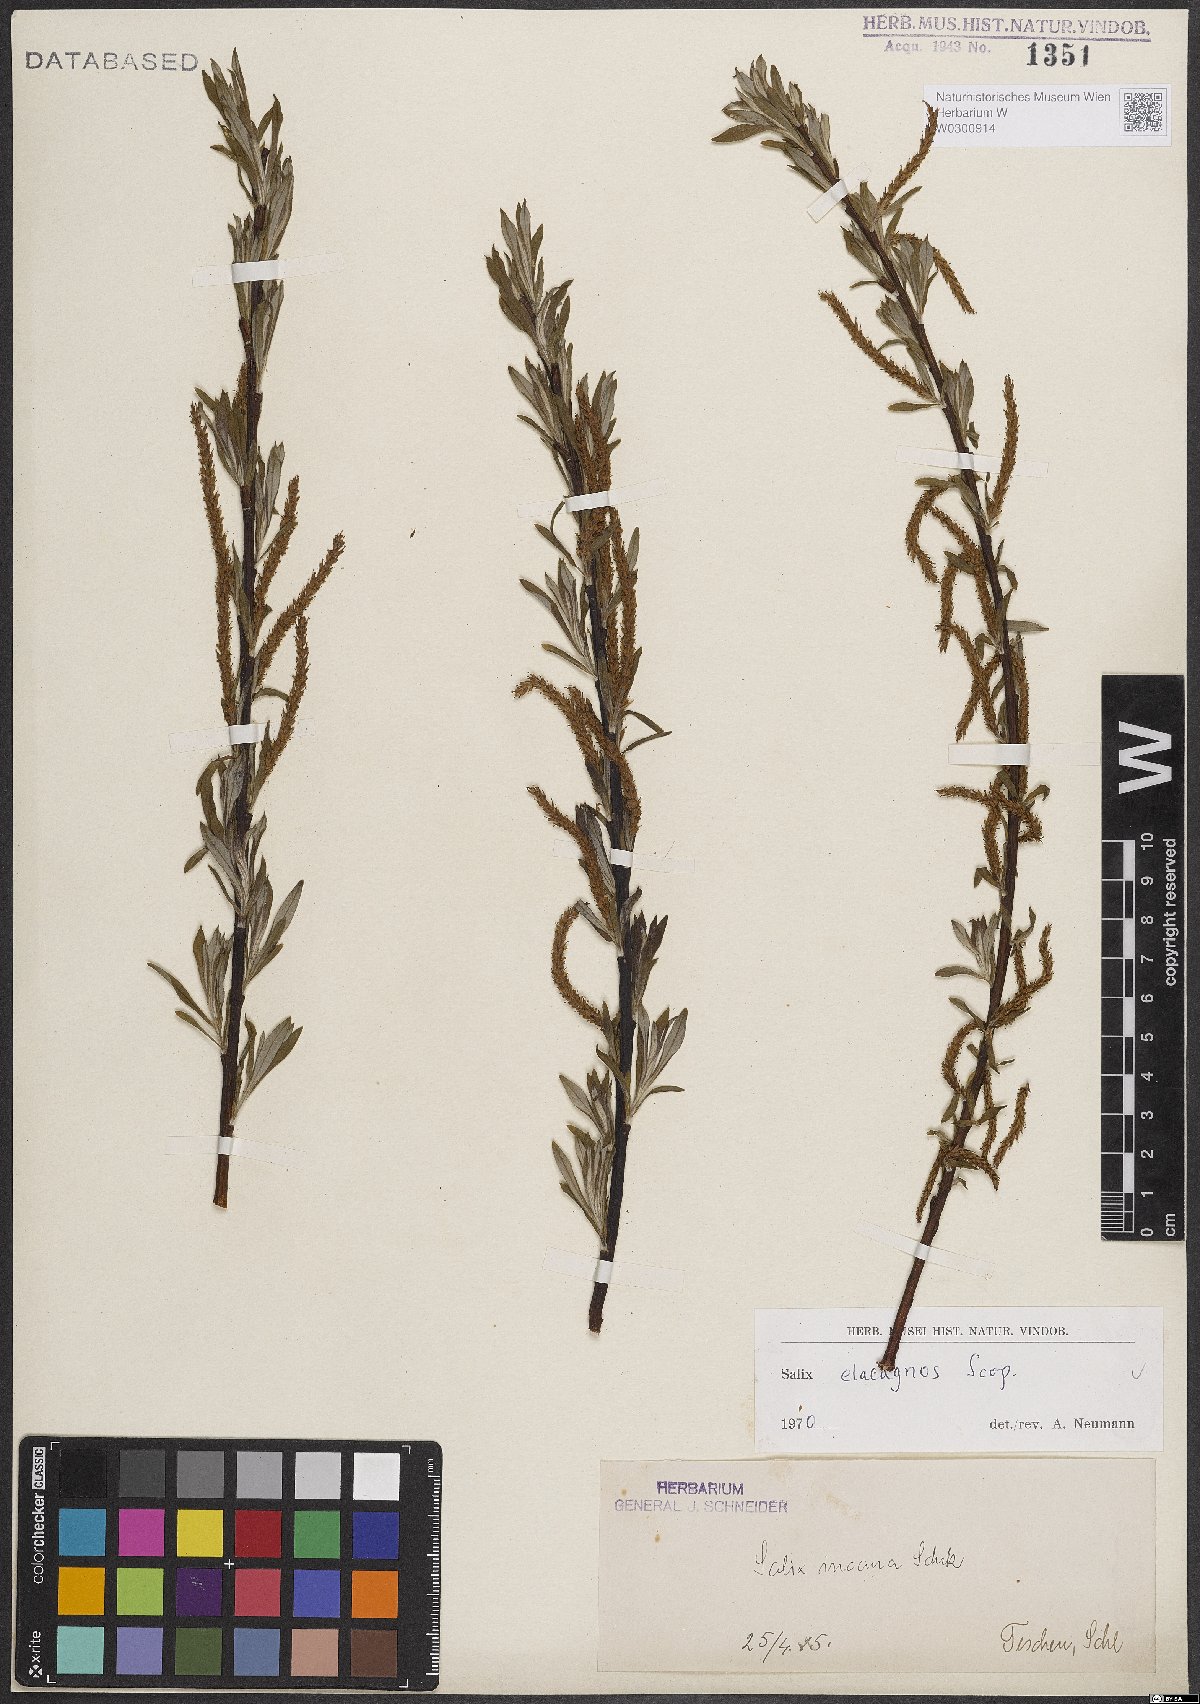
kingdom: Plantae
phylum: Tracheophyta
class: Magnoliopsida
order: Malpighiales
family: Salicaceae
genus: Salix
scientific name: Salix eleagnos
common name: Elaeagnus willow
